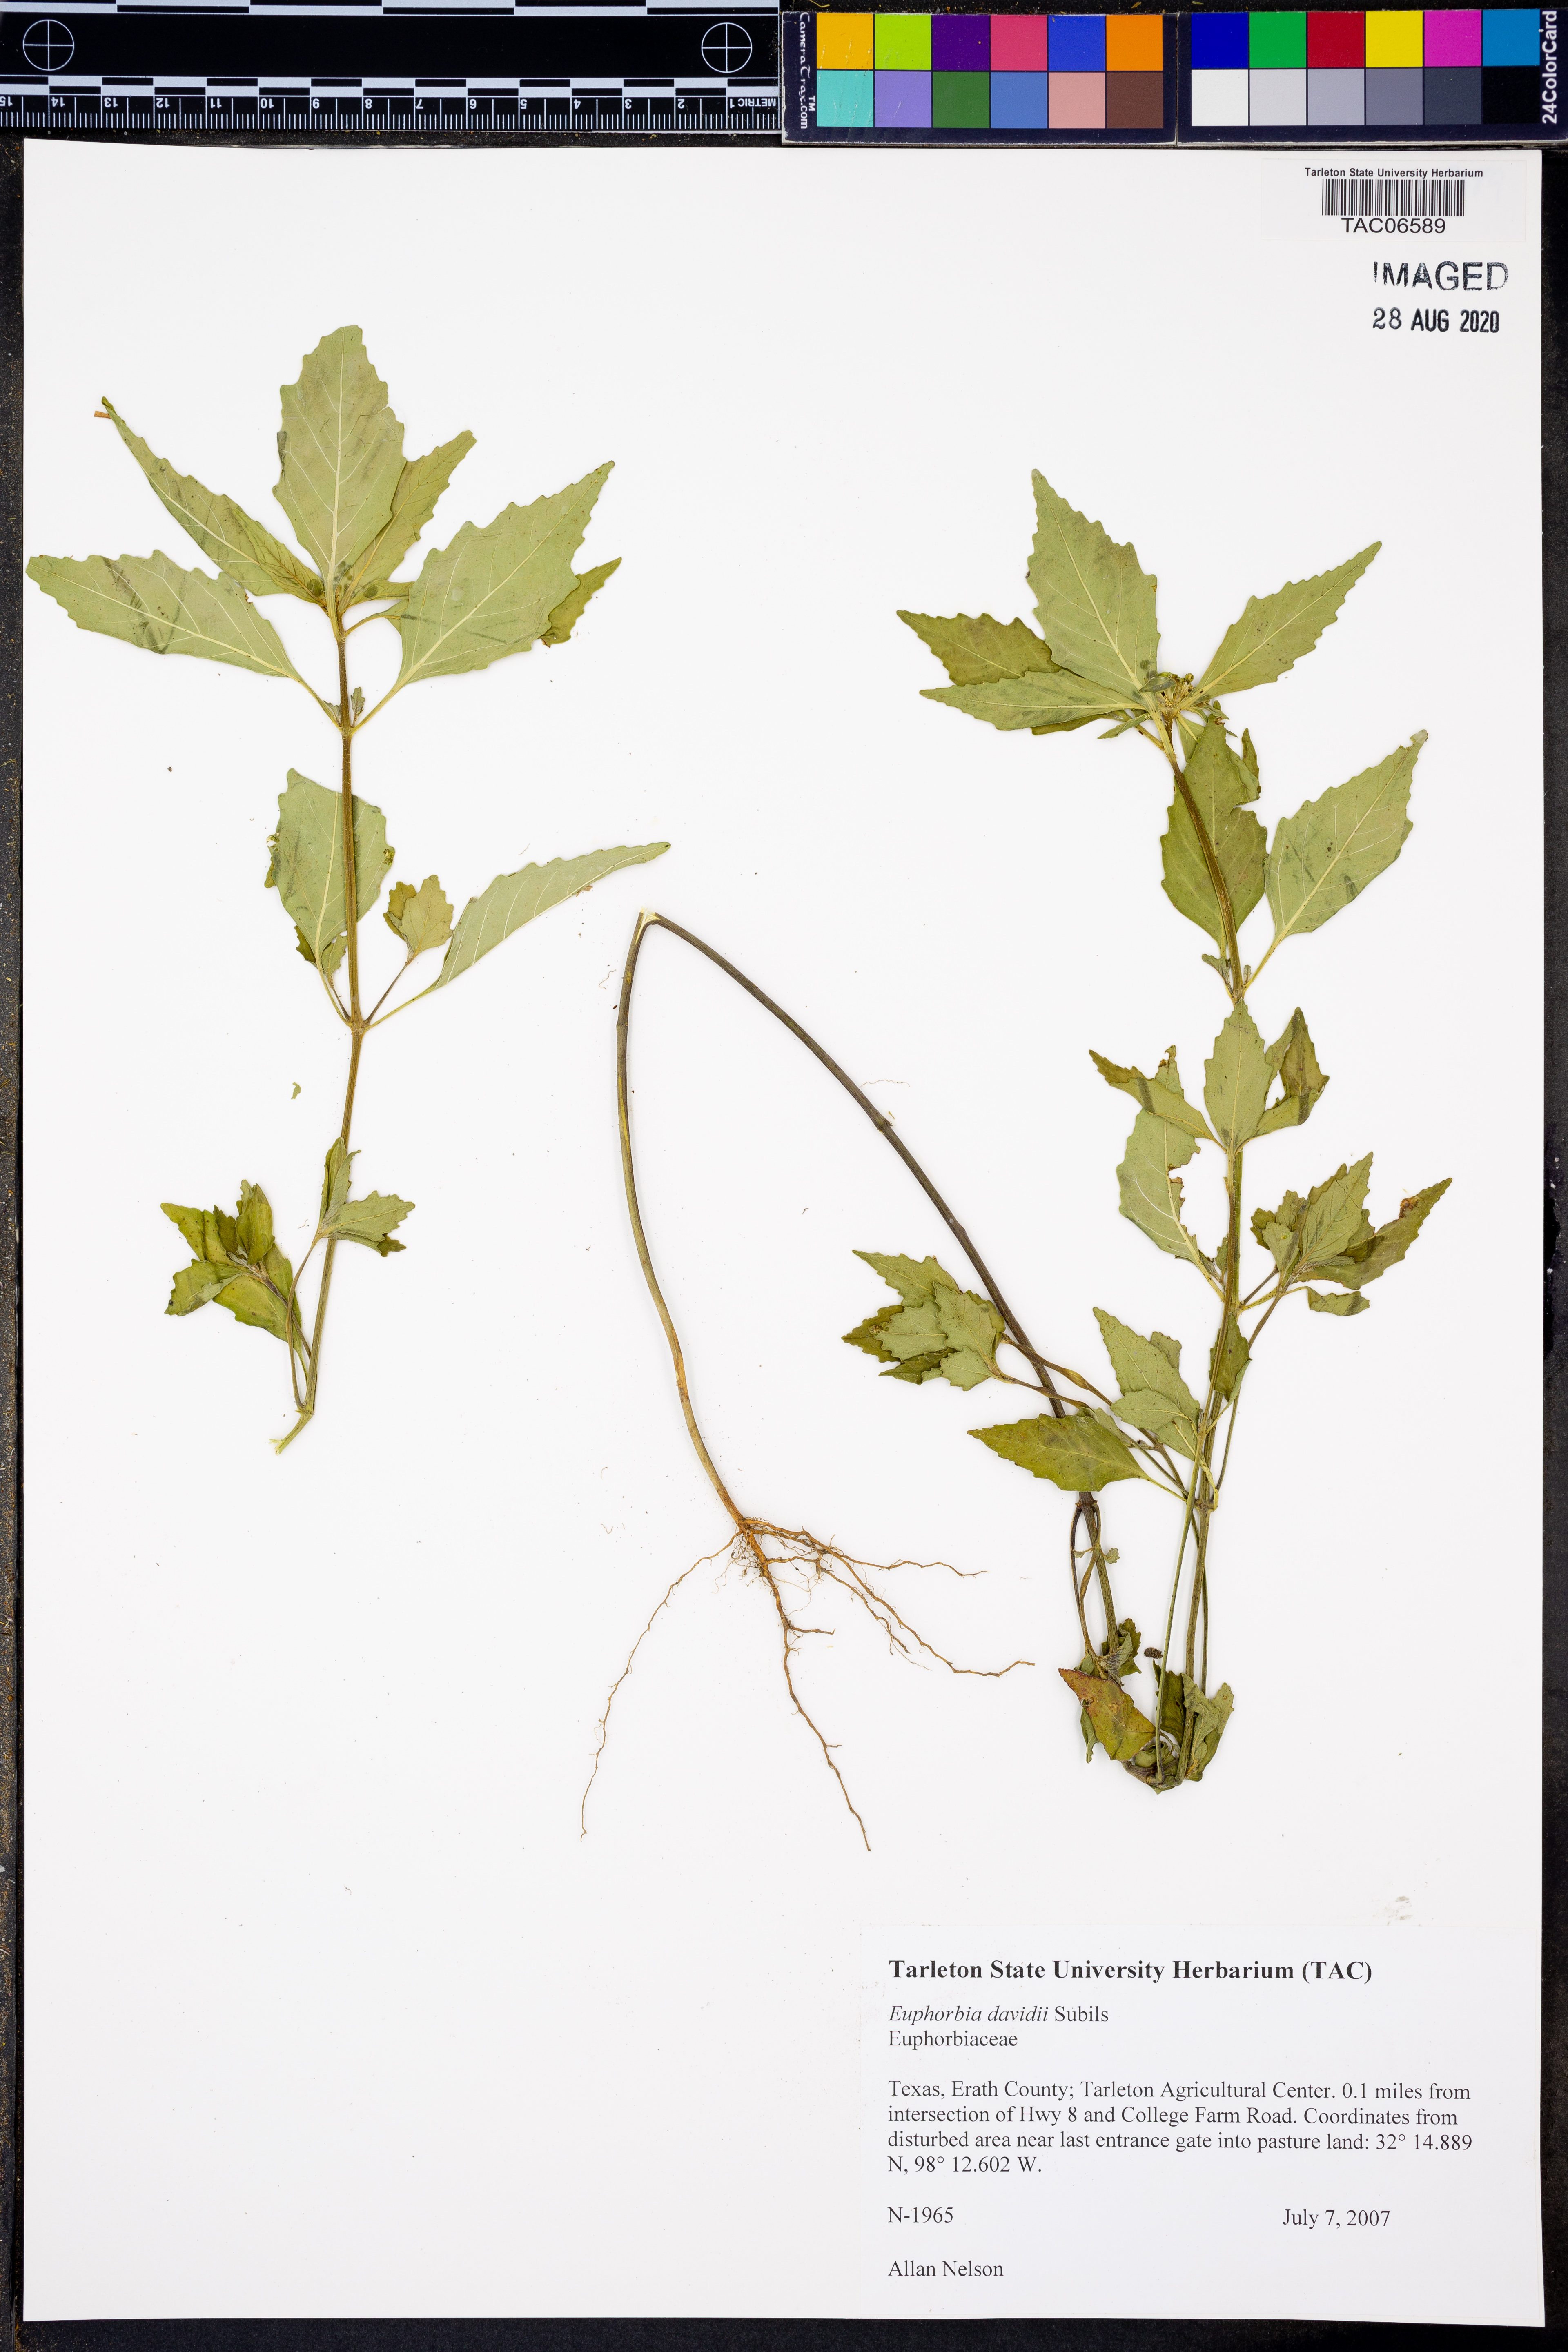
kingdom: Plantae
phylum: Tracheophyta
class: Magnoliopsida
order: Malpighiales
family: Euphorbiaceae
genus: Euphorbia
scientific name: Euphorbia davidii
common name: David's spurge
